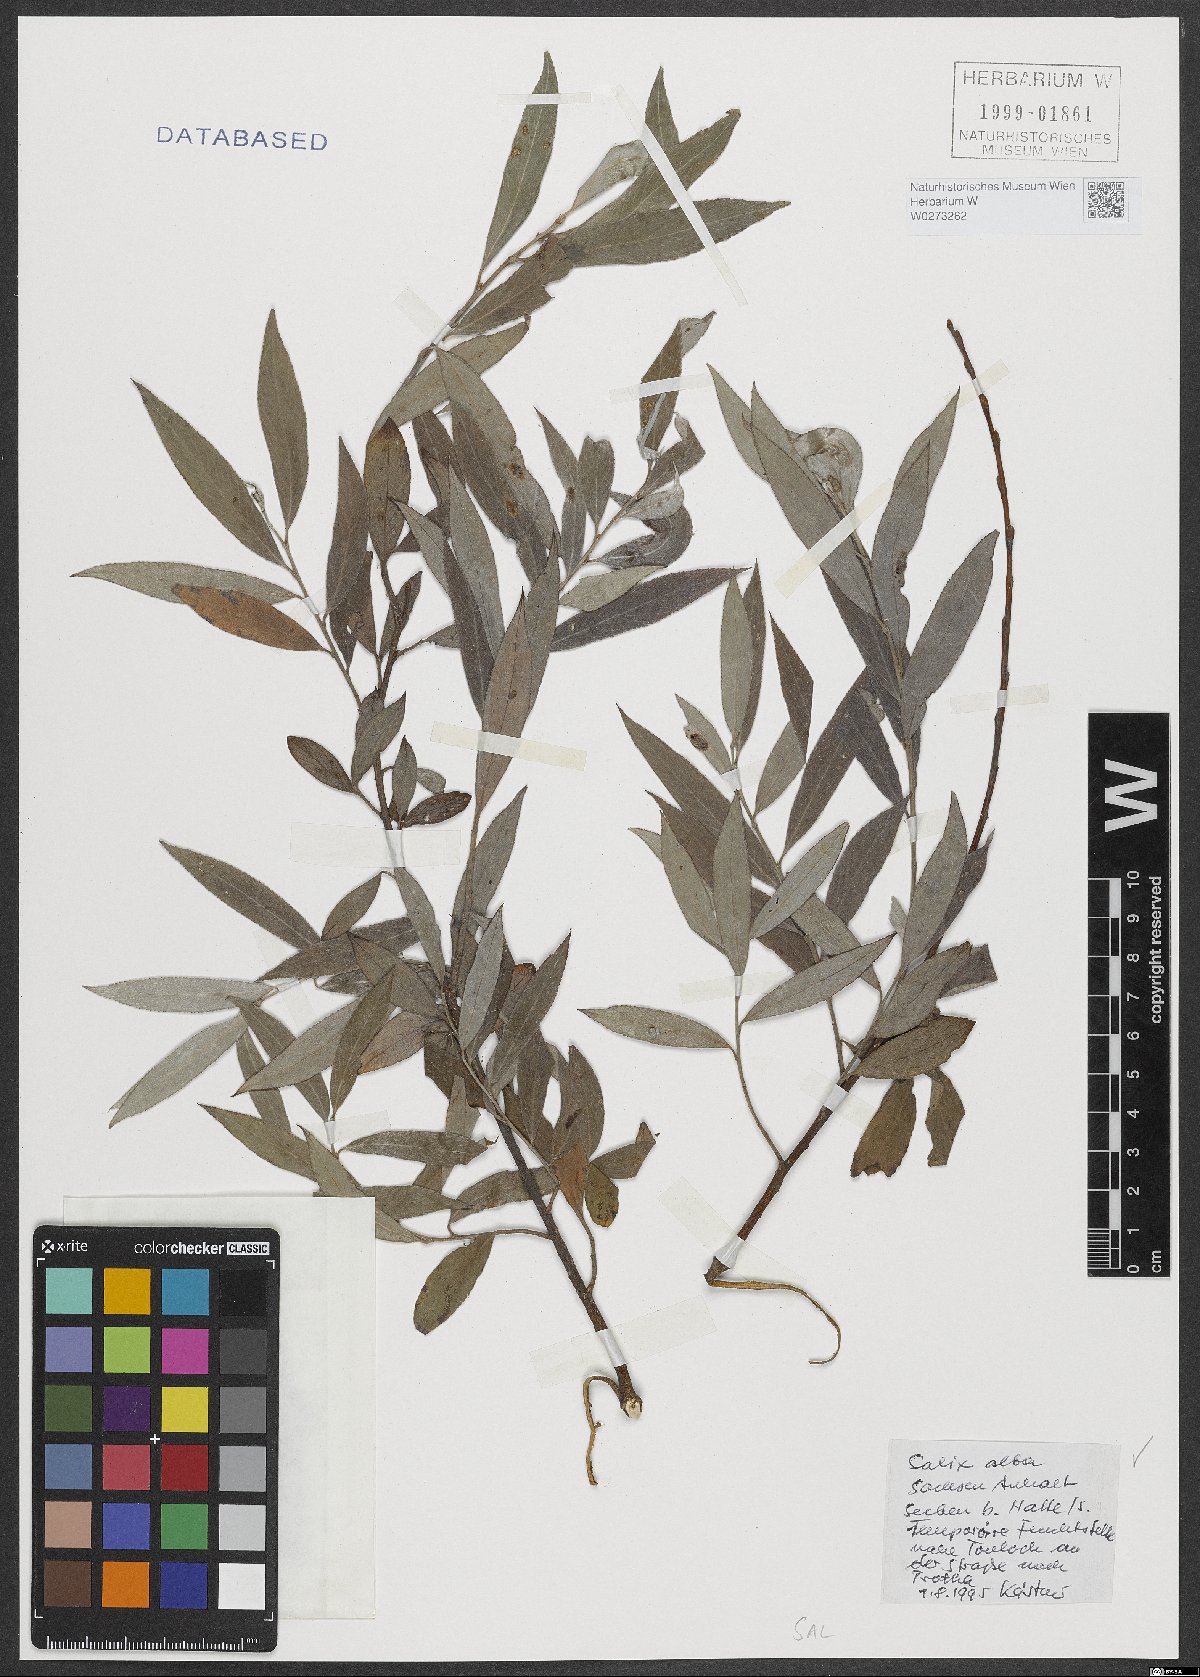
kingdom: Plantae
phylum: Tracheophyta
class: Magnoliopsida
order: Malpighiales
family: Salicaceae
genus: Salix
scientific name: Salix alba
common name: White willow
